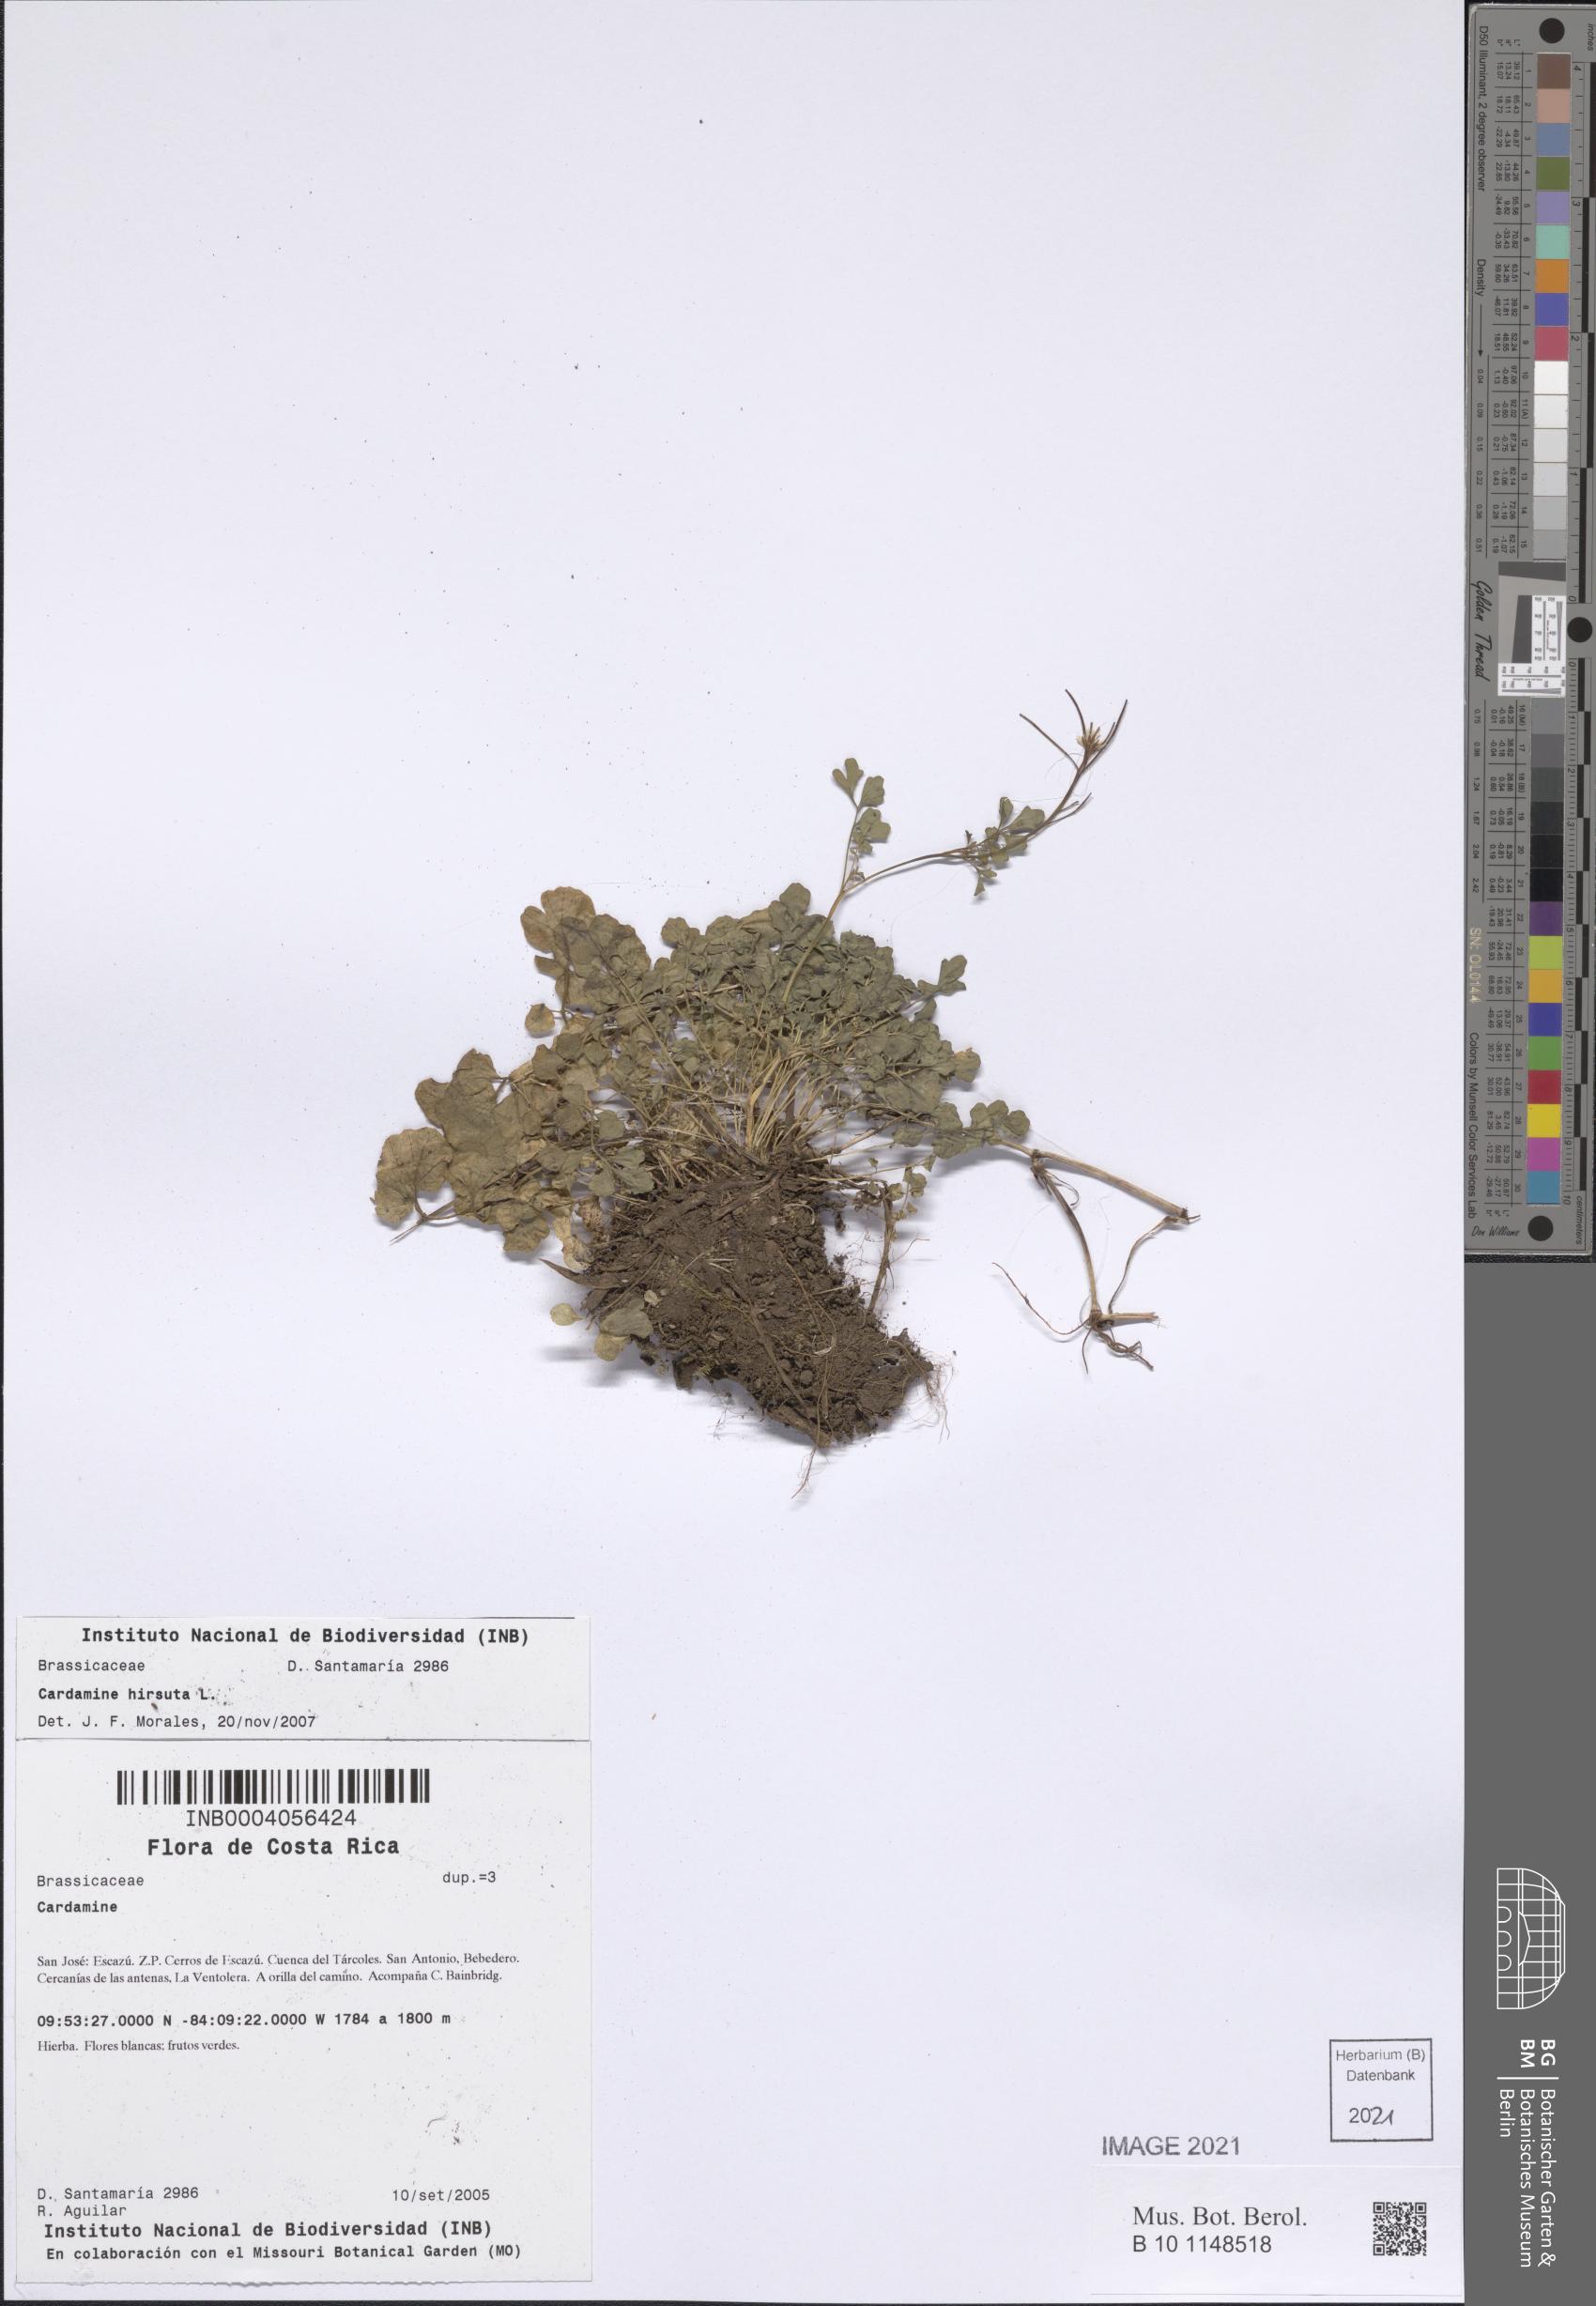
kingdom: Plantae
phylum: Tracheophyta
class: Magnoliopsida
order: Brassicales
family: Brassicaceae
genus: Cardamine
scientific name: Cardamine hirsuta
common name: Hairy bittercress
